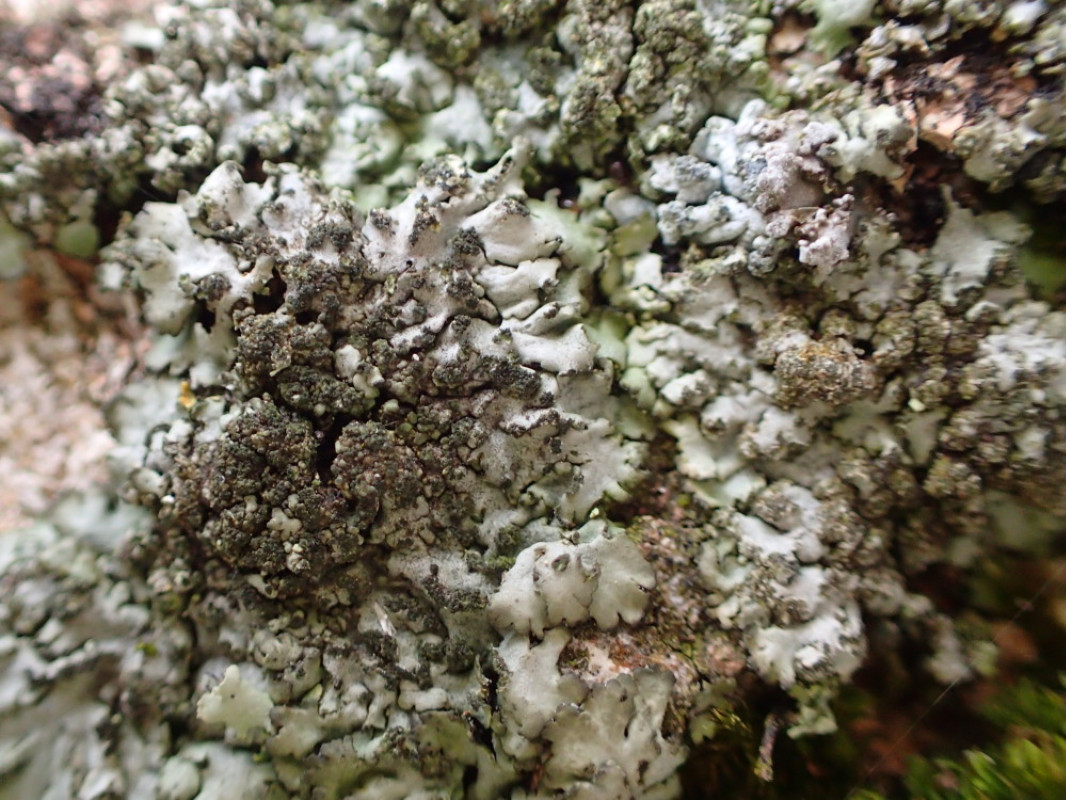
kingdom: Fungi
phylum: Ascomycota
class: Lecanoromycetes
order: Caliciales
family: Physciaceae
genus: Phaeophyscia
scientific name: Phaeophyscia orbicularis
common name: grågrøn rosetlav
